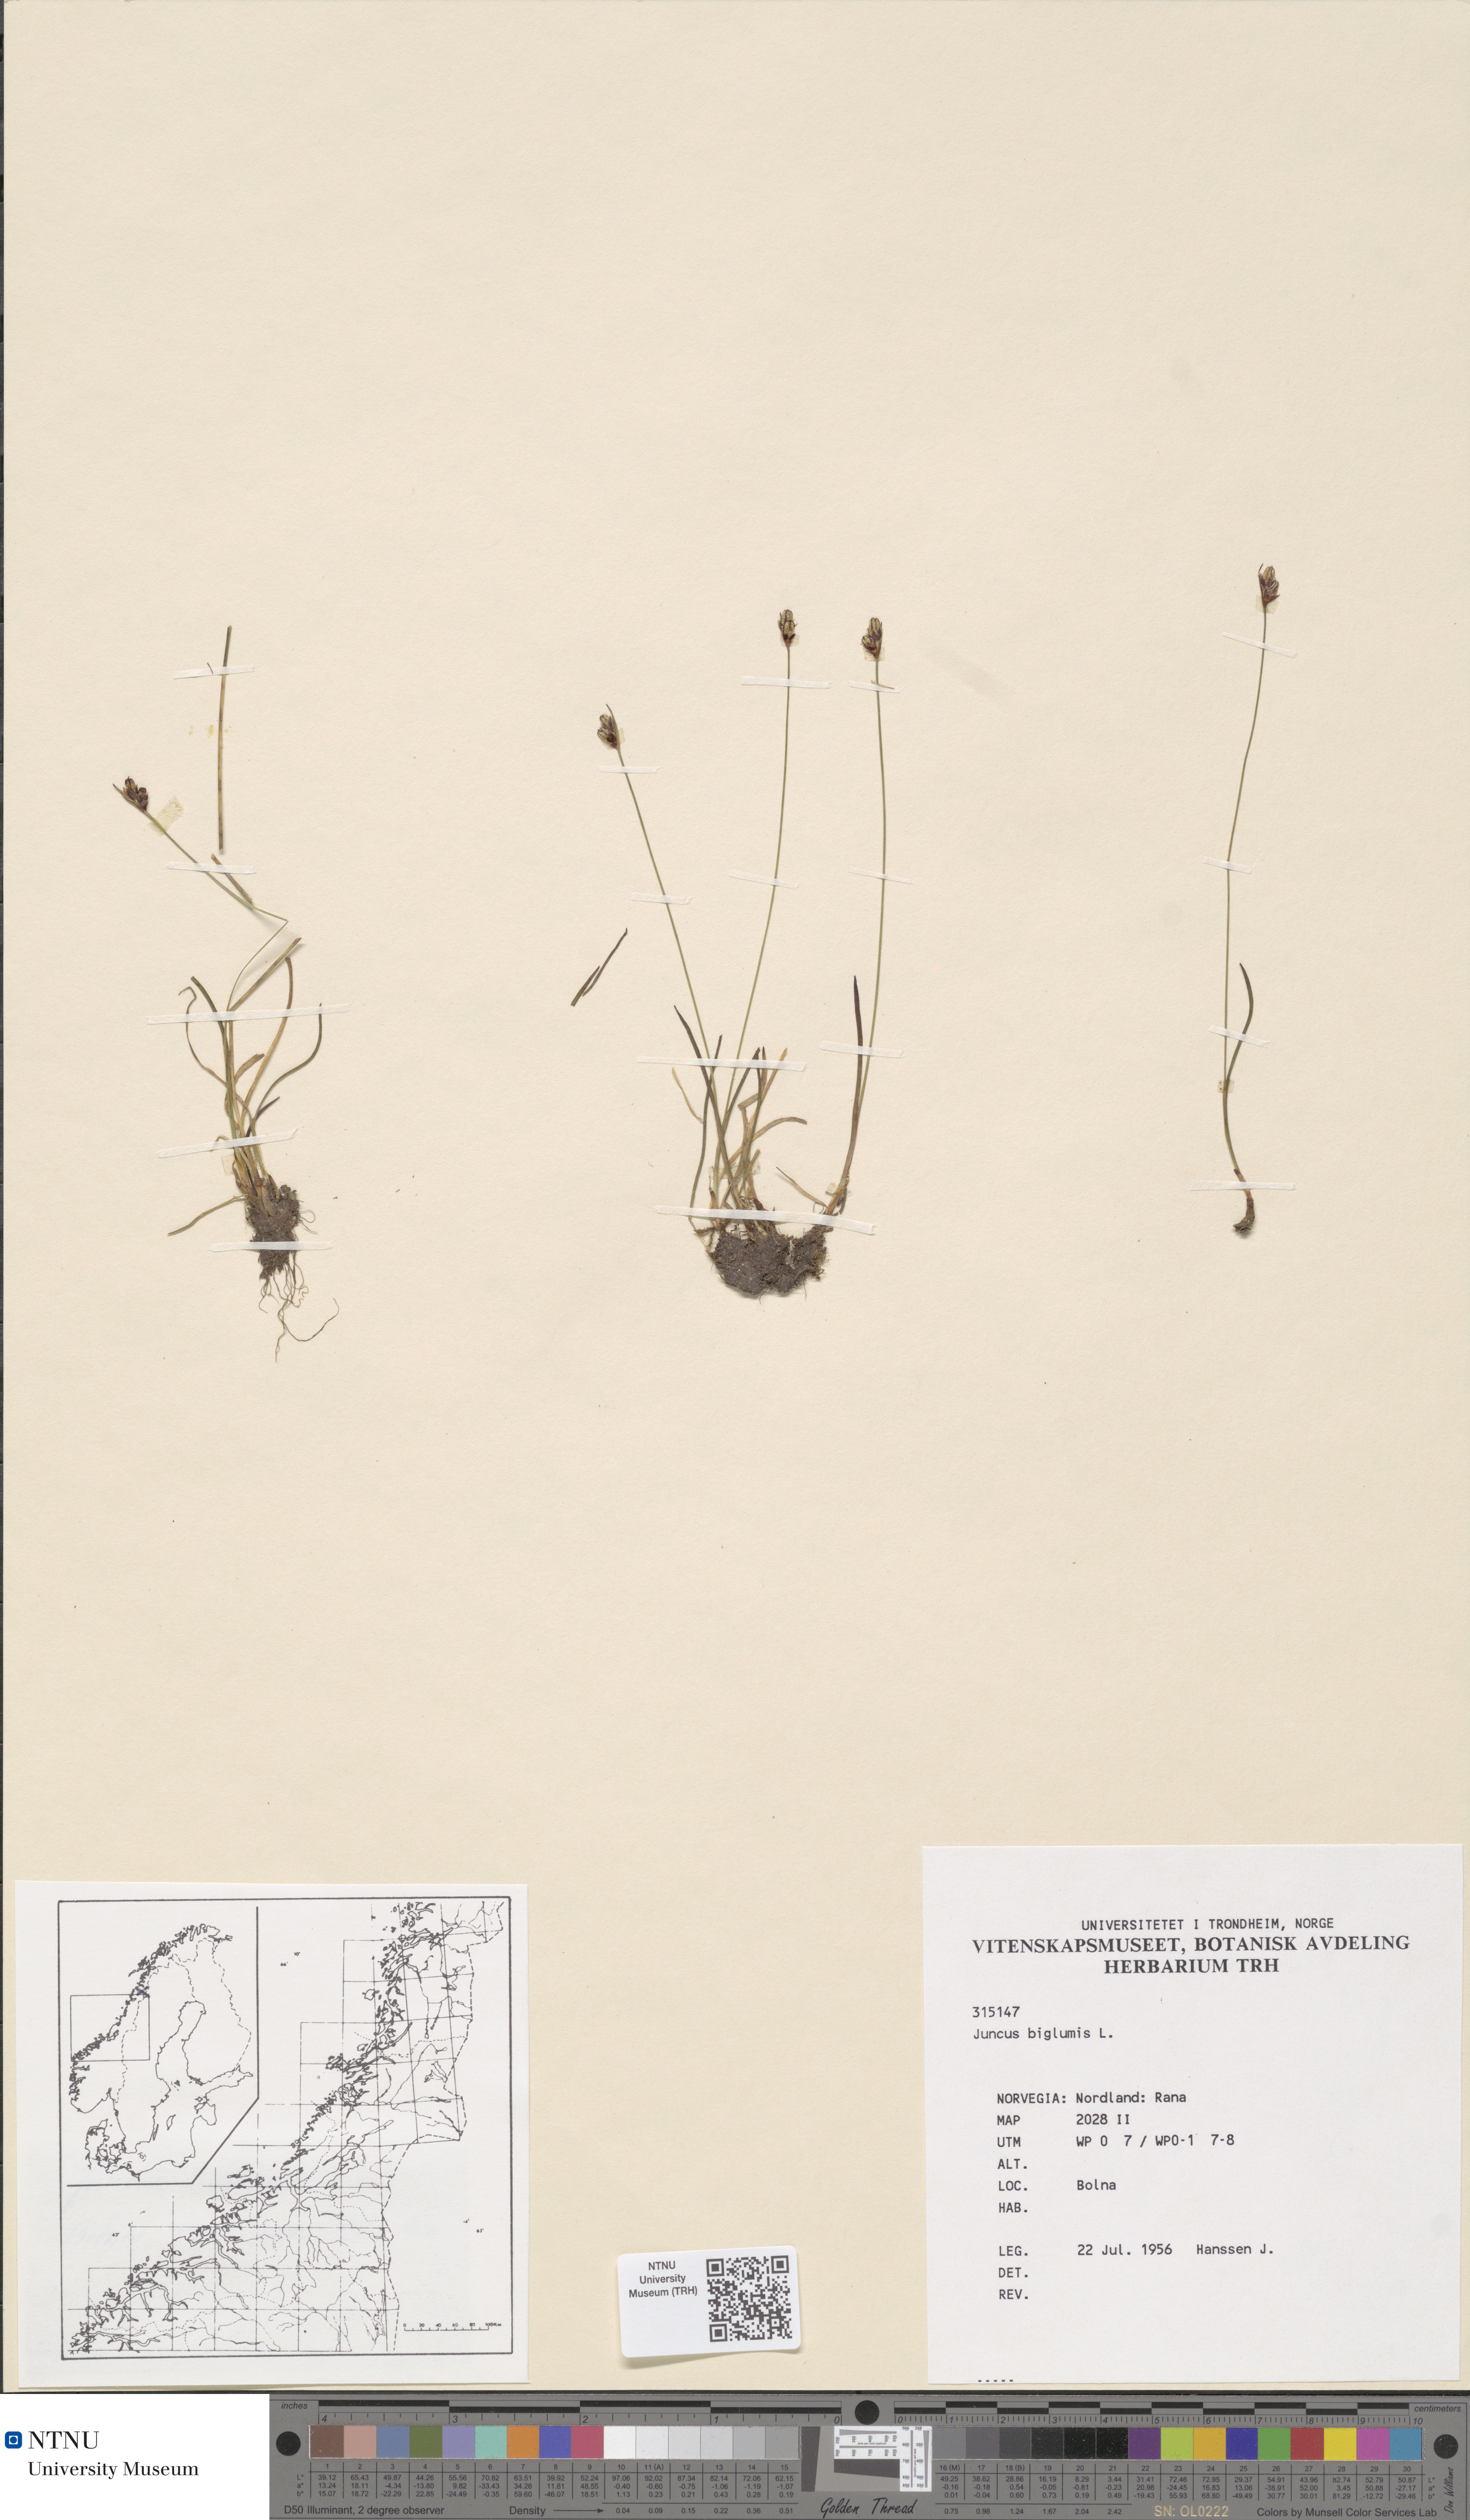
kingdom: Plantae
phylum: Tracheophyta
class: Liliopsida
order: Poales
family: Juncaceae
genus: Juncus
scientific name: Juncus biglumis
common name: Two-flowered rush
